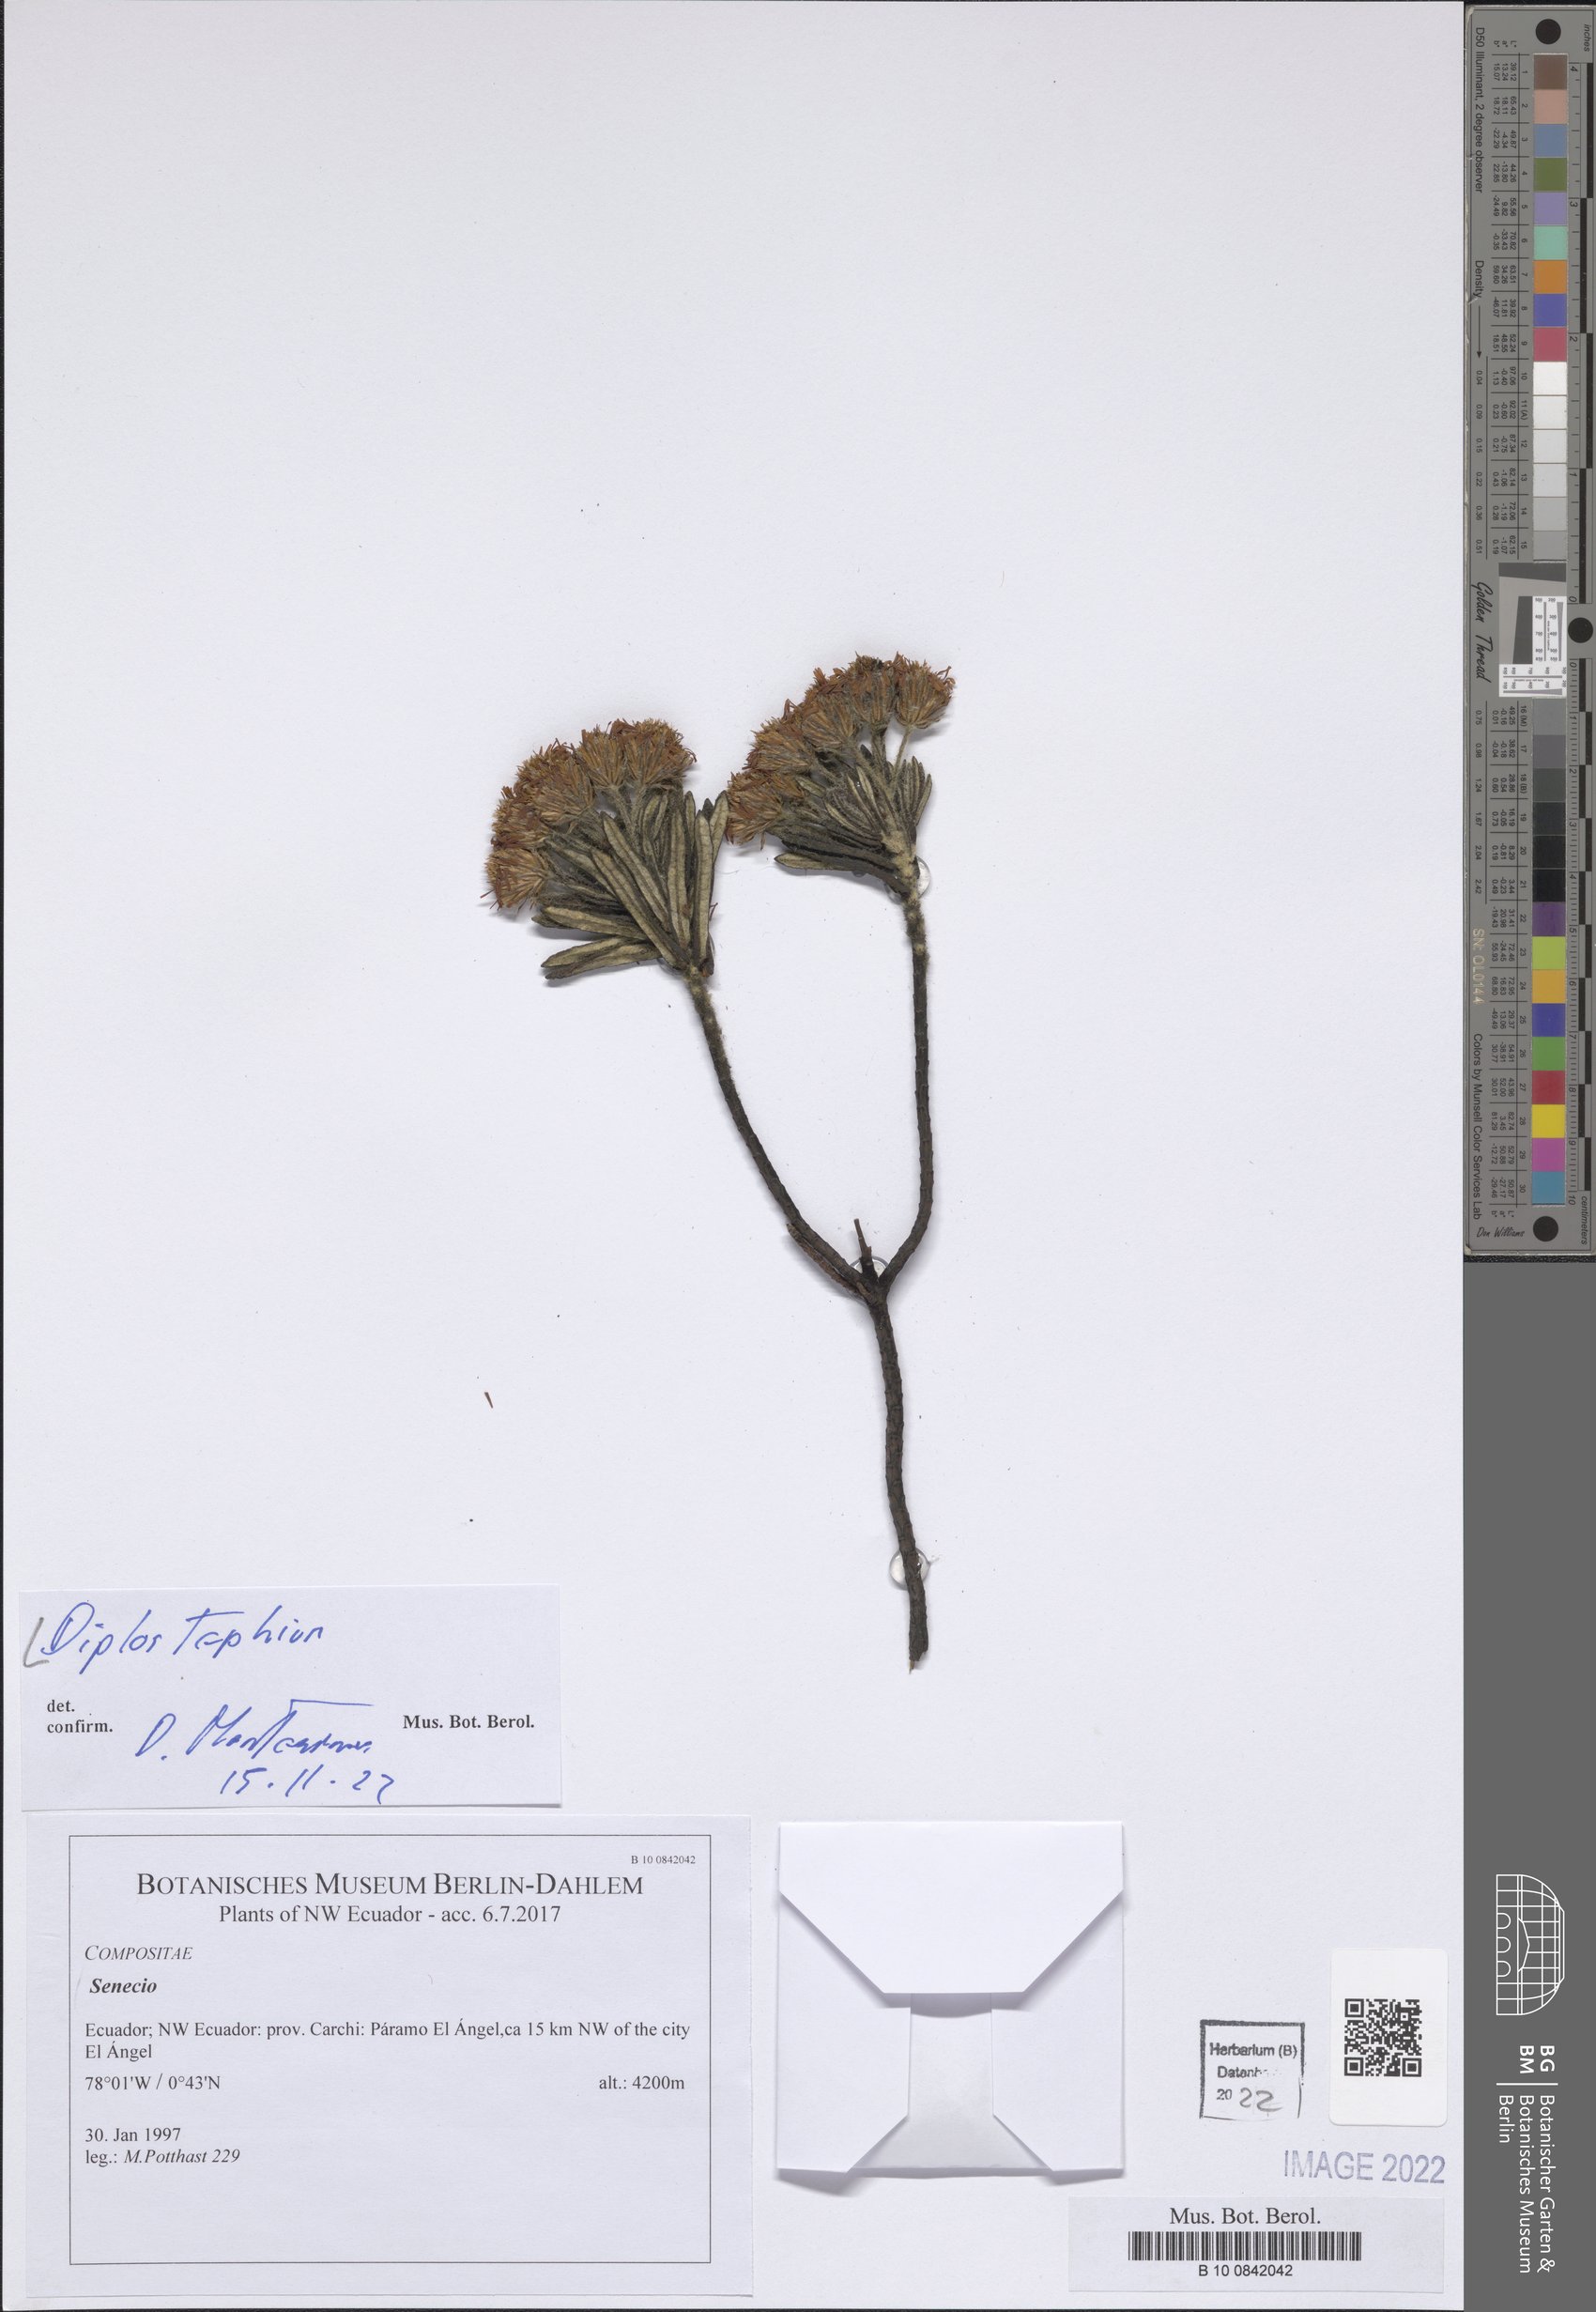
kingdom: Plantae
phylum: Tracheophyta
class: Magnoliopsida
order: Asterales
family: Asteraceae
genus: Diplostephium
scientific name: Diplostephium
